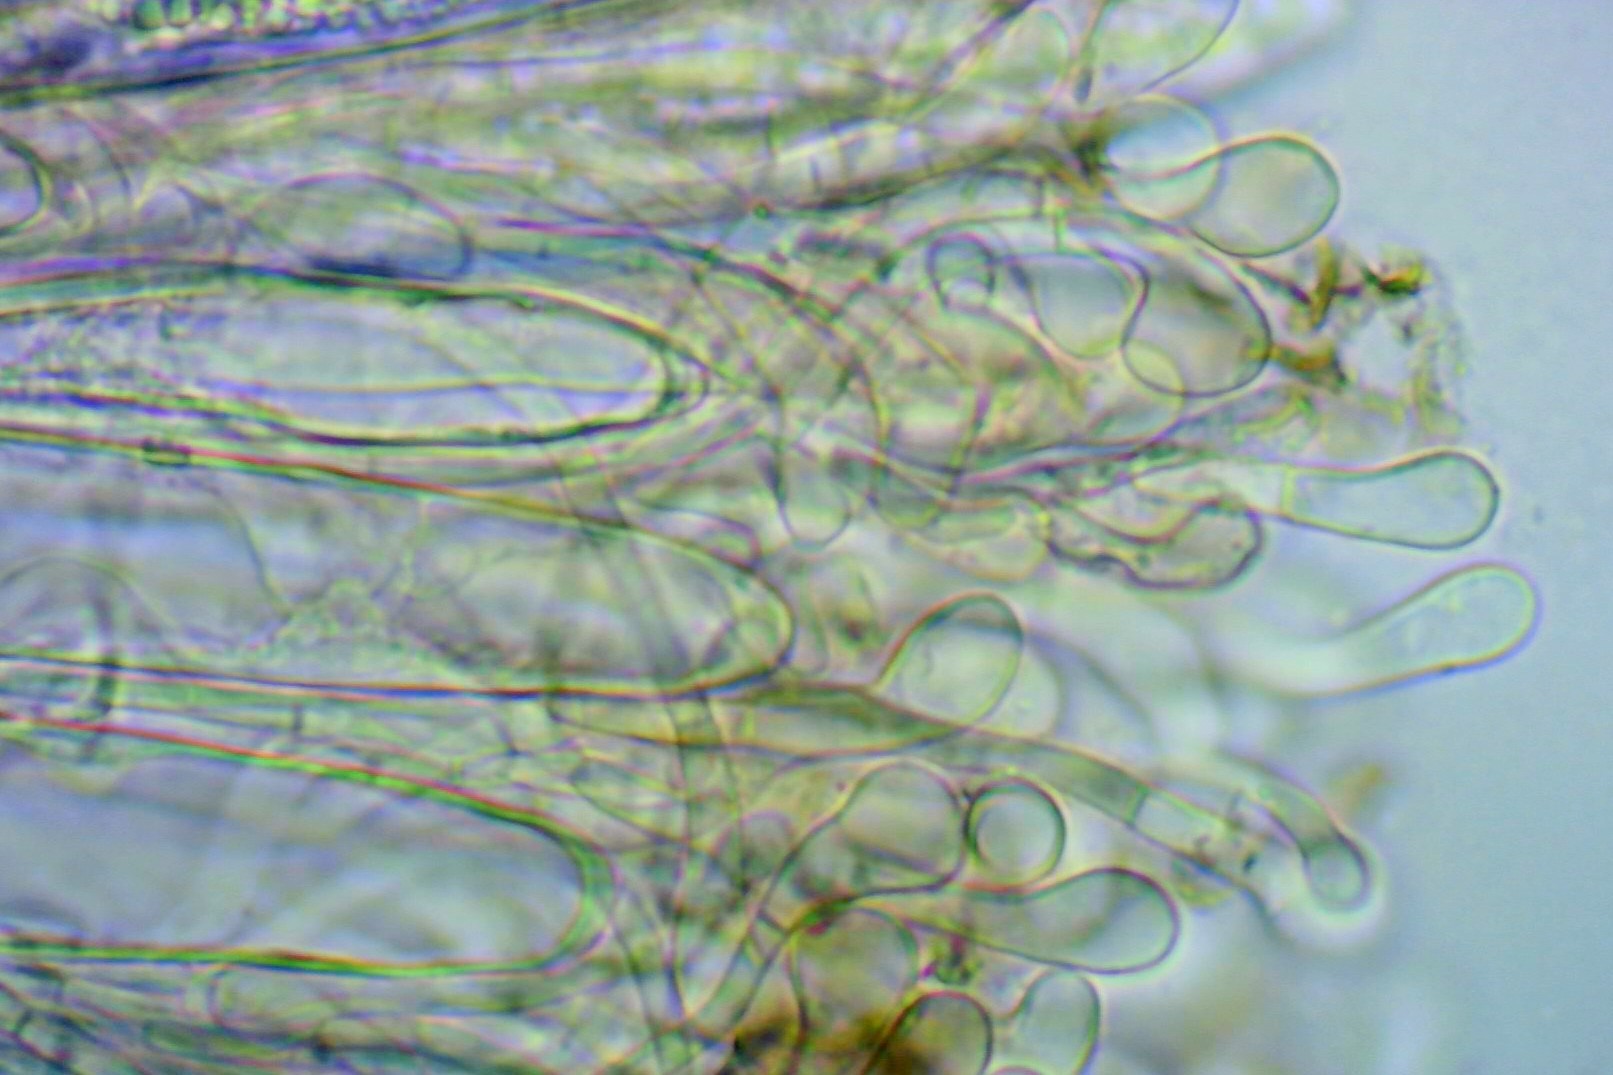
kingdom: Fungi
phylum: Ascomycota
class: Geoglossomycetes
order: Geoglossales
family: Geoglossaceae
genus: Geoglossum
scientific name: Geoglossum fallax
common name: småskællet jordtunge
